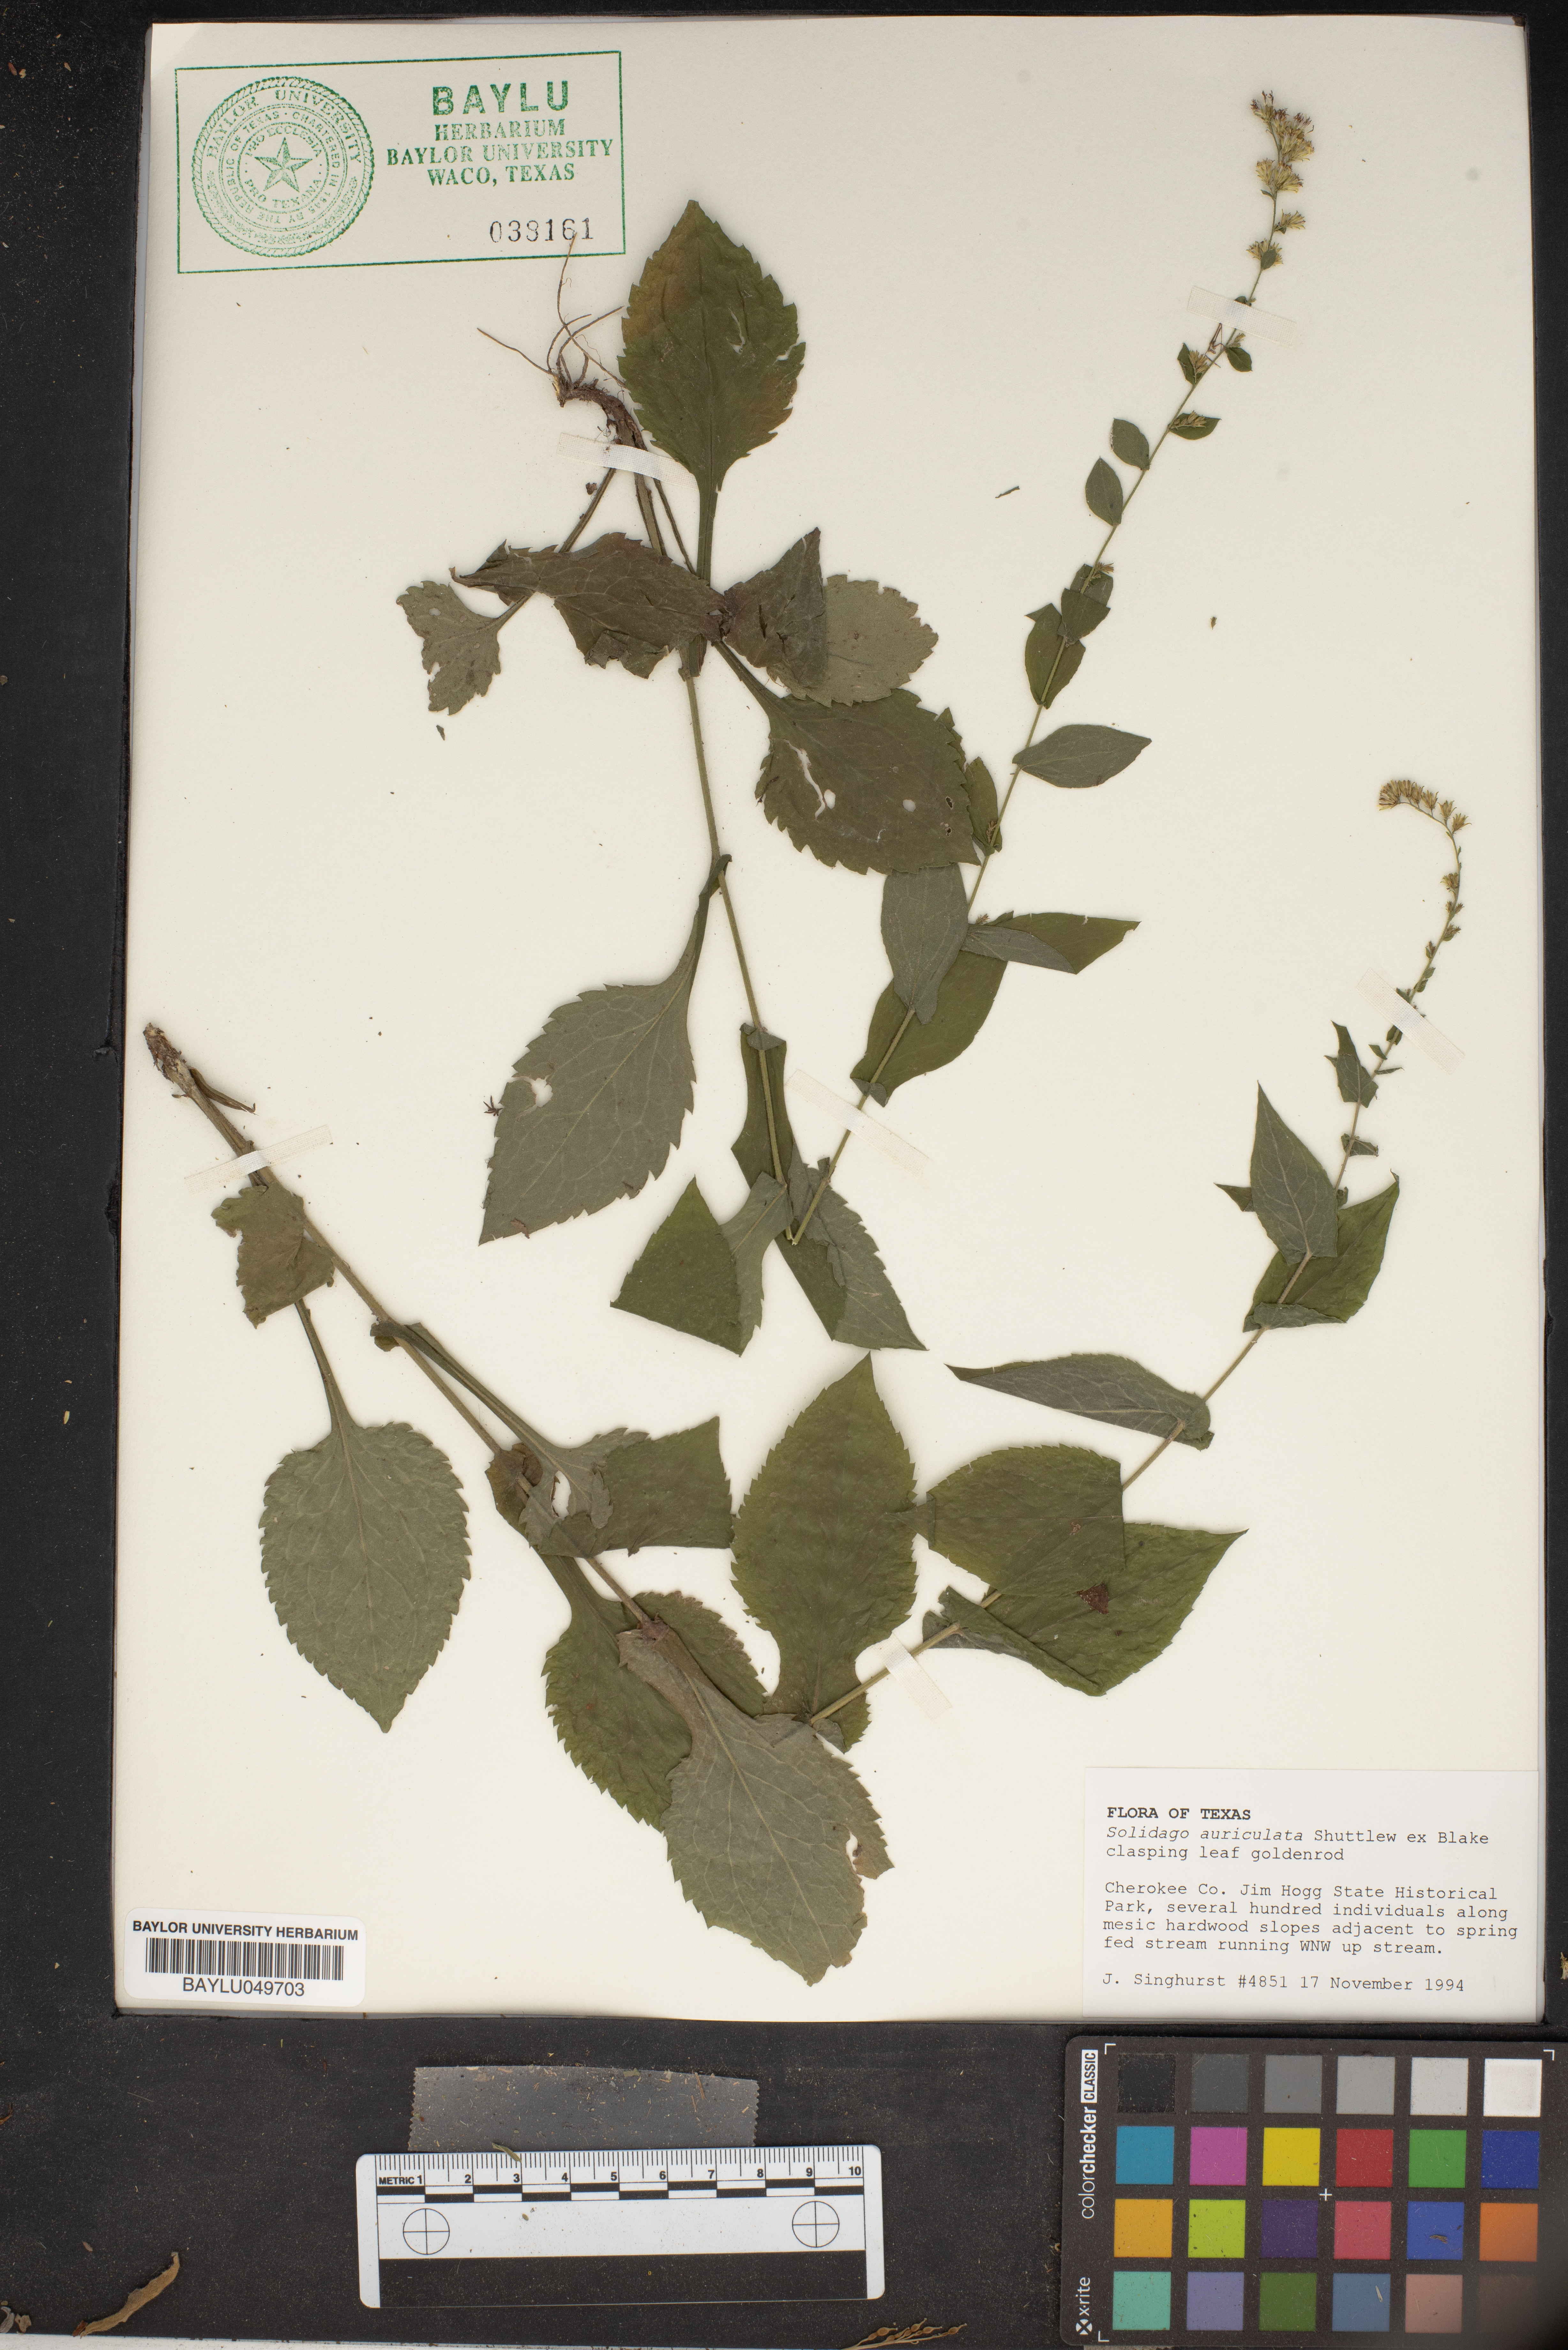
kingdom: Plantae
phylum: Tracheophyta
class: Magnoliopsida
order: Asterales
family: Asteraceae
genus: Solidago
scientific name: Solidago auriculata
